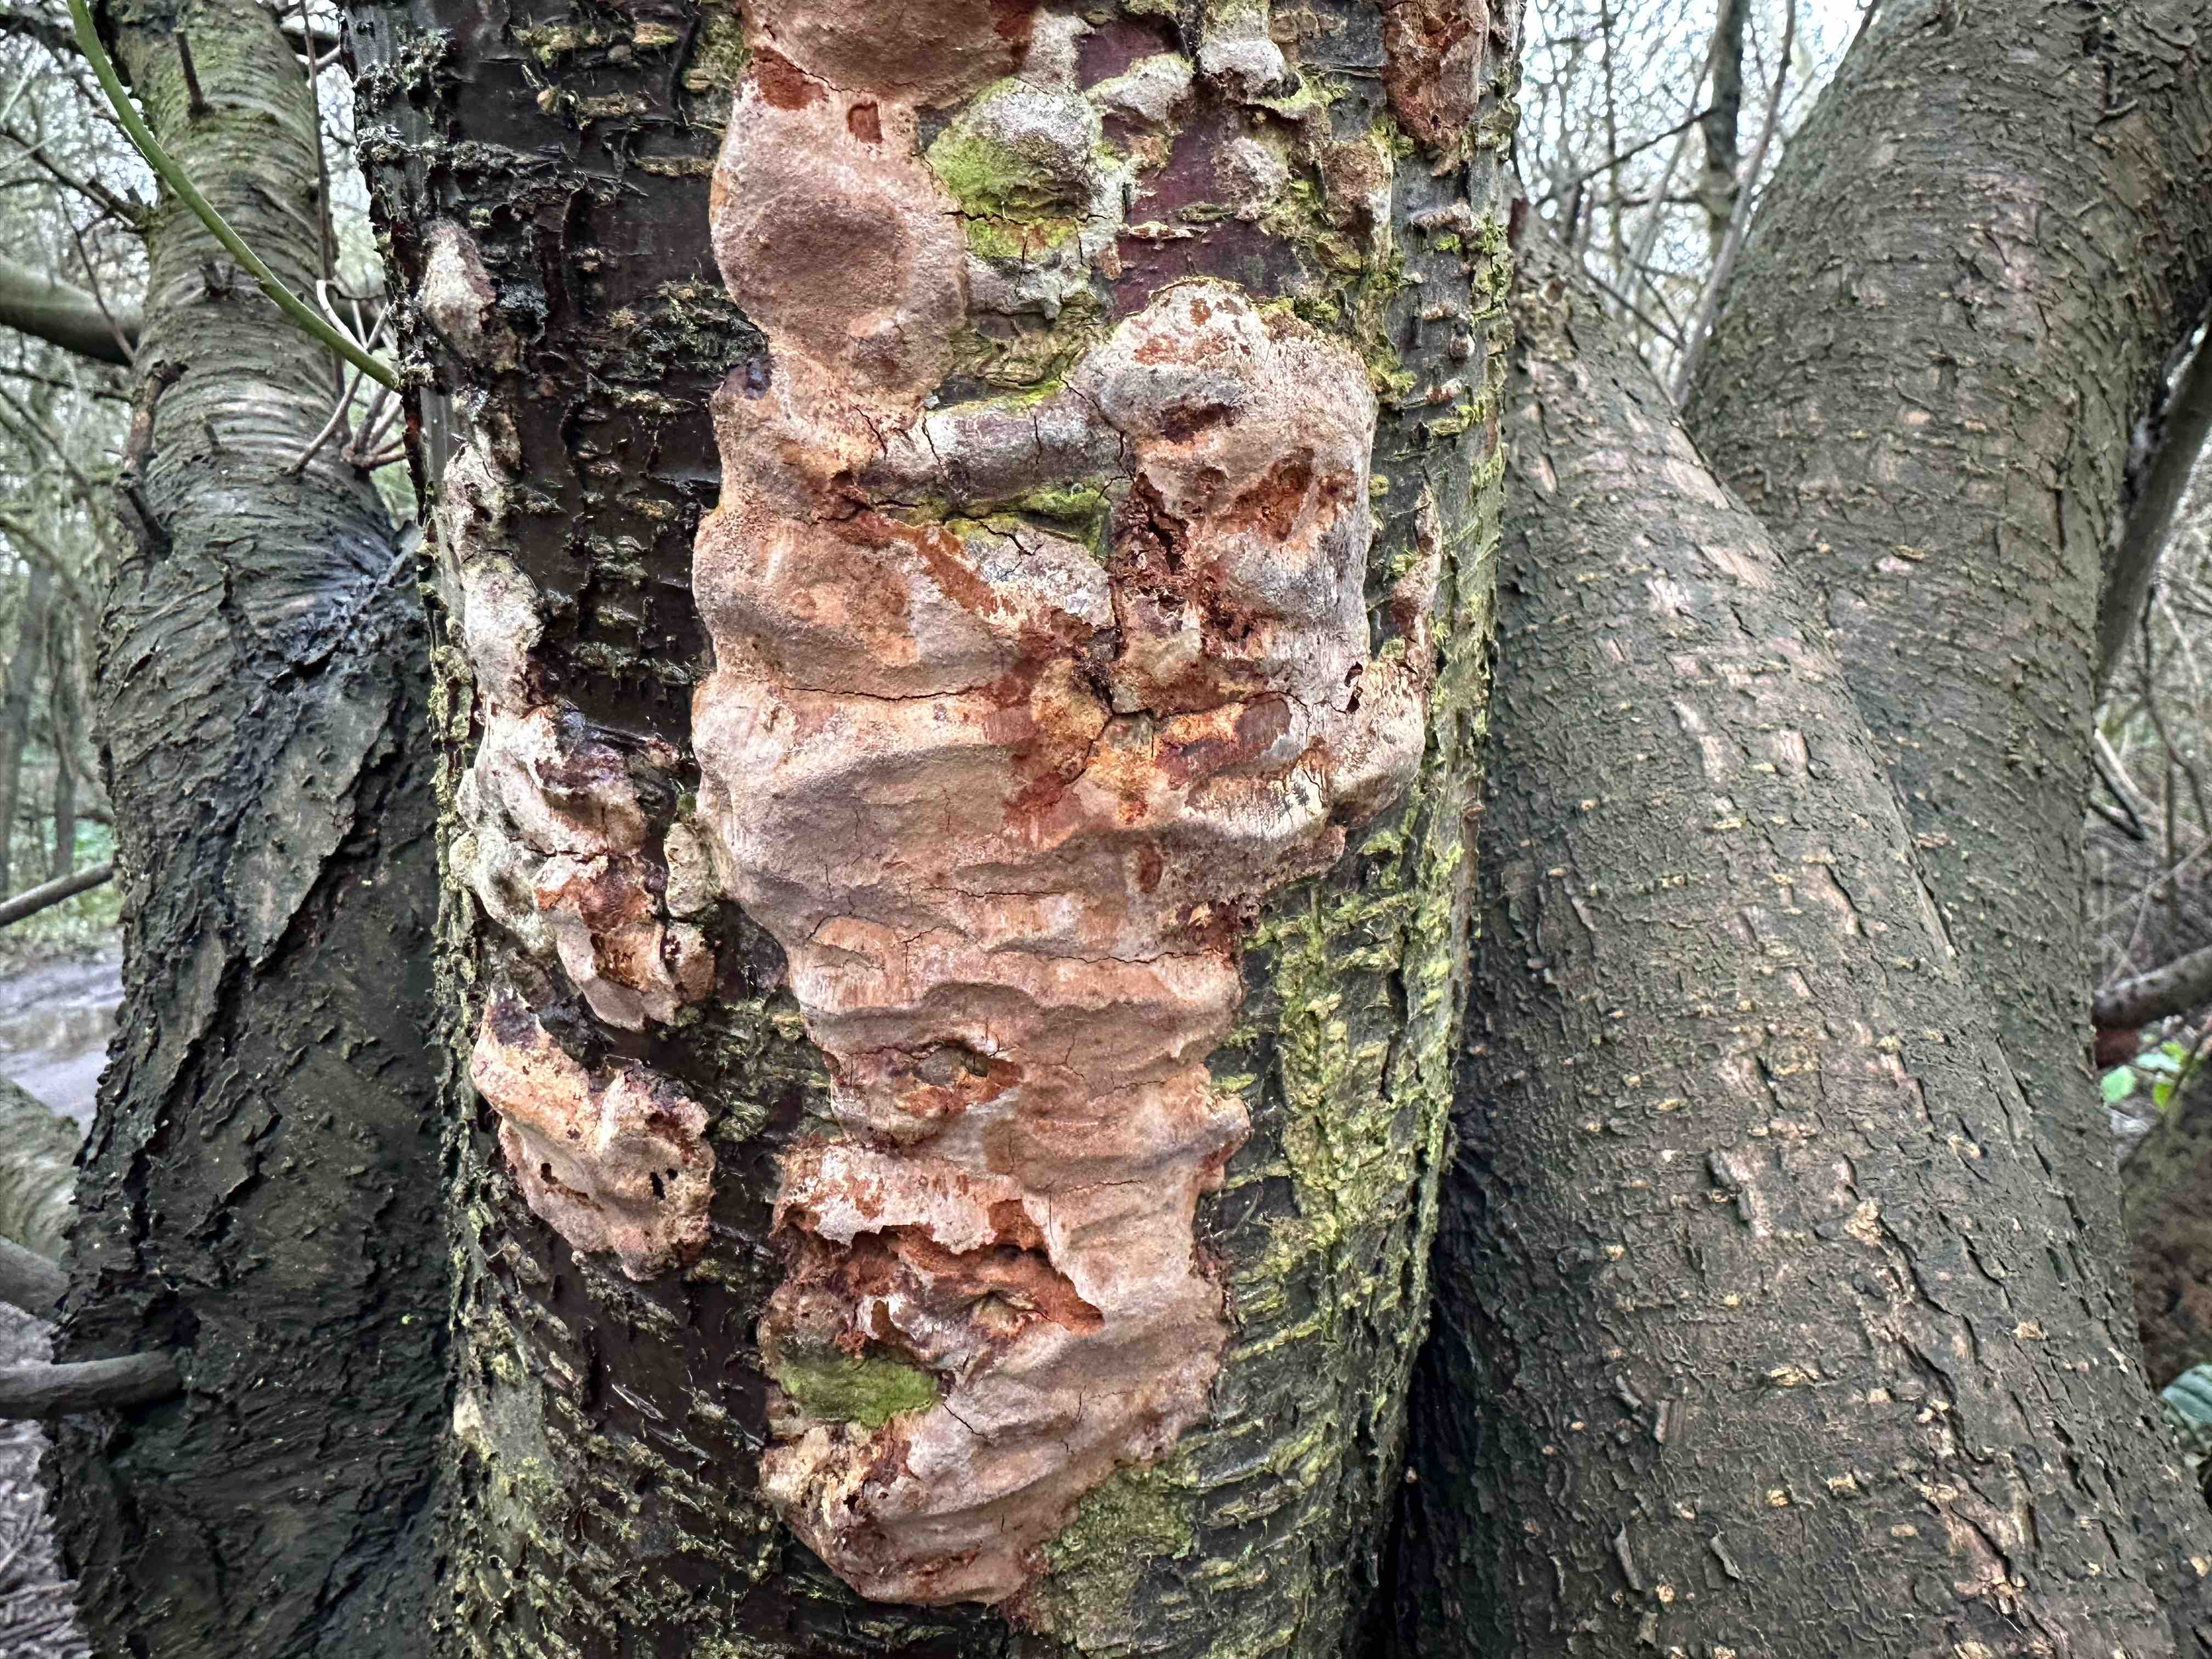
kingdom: Fungi
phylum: Basidiomycota
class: Agaricomycetes
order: Hymenochaetales
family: Hymenochaetaceae
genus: Phellinus
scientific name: Phellinus pomaceus
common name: blomme-ildporesvamp
